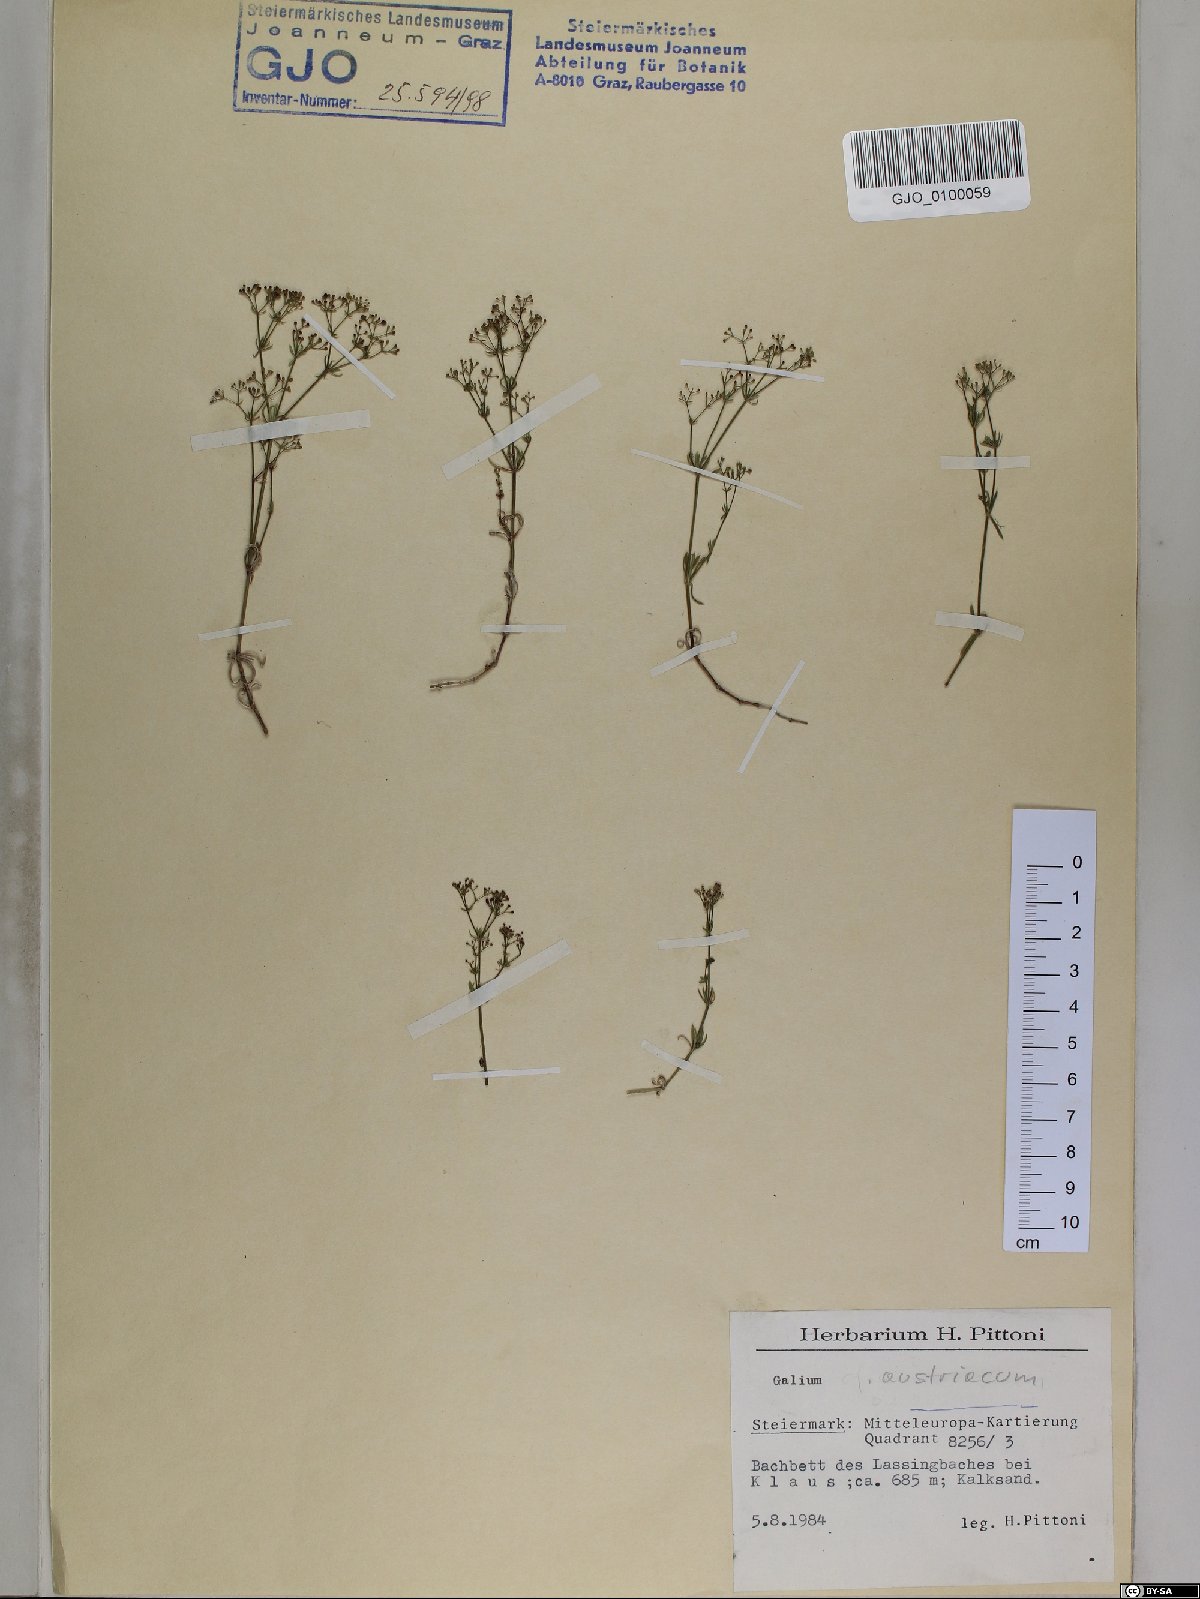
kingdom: Plantae
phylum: Tracheophyta
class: Magnoliopsida
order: Gentianales
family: Rubiaceae
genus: Galium
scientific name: Galium austriacum
